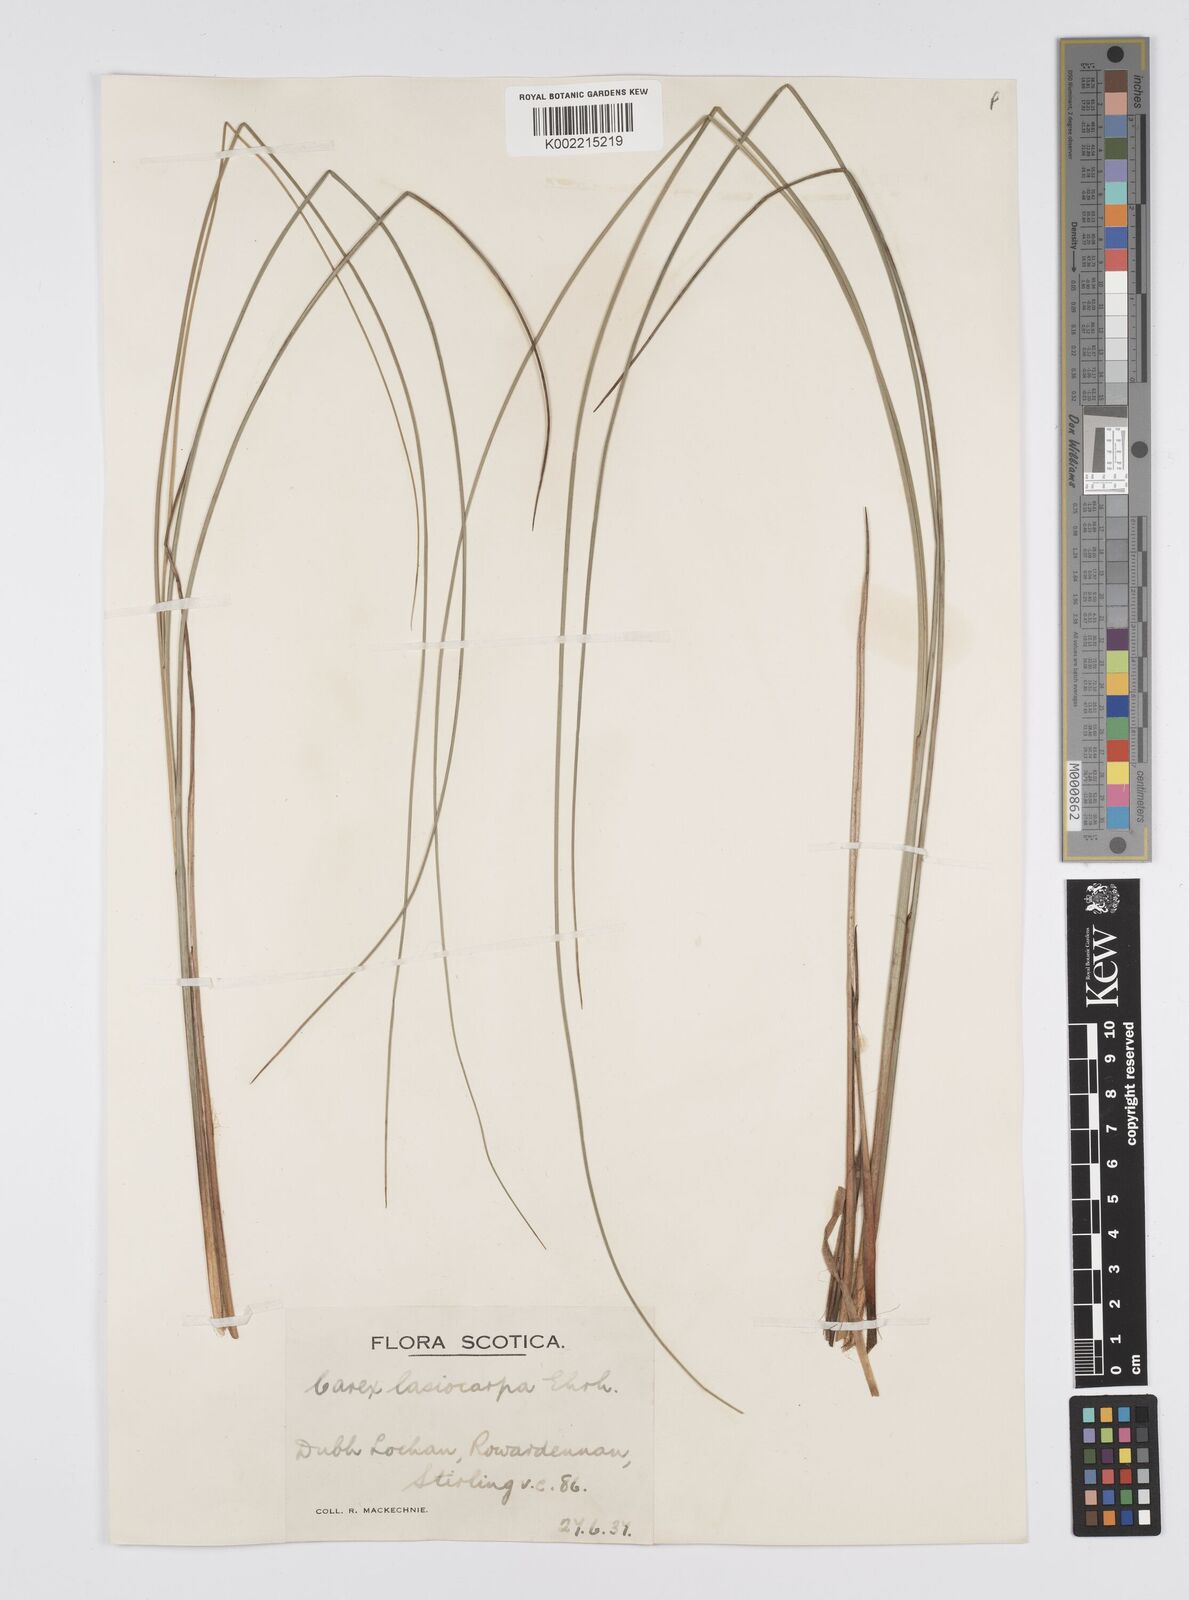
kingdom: Plantae
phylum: Tracheophyta
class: Liliopsida
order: Poales
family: Cyperaceae
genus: Carex
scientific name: Carex lasiocarpa
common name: Slender sedge
